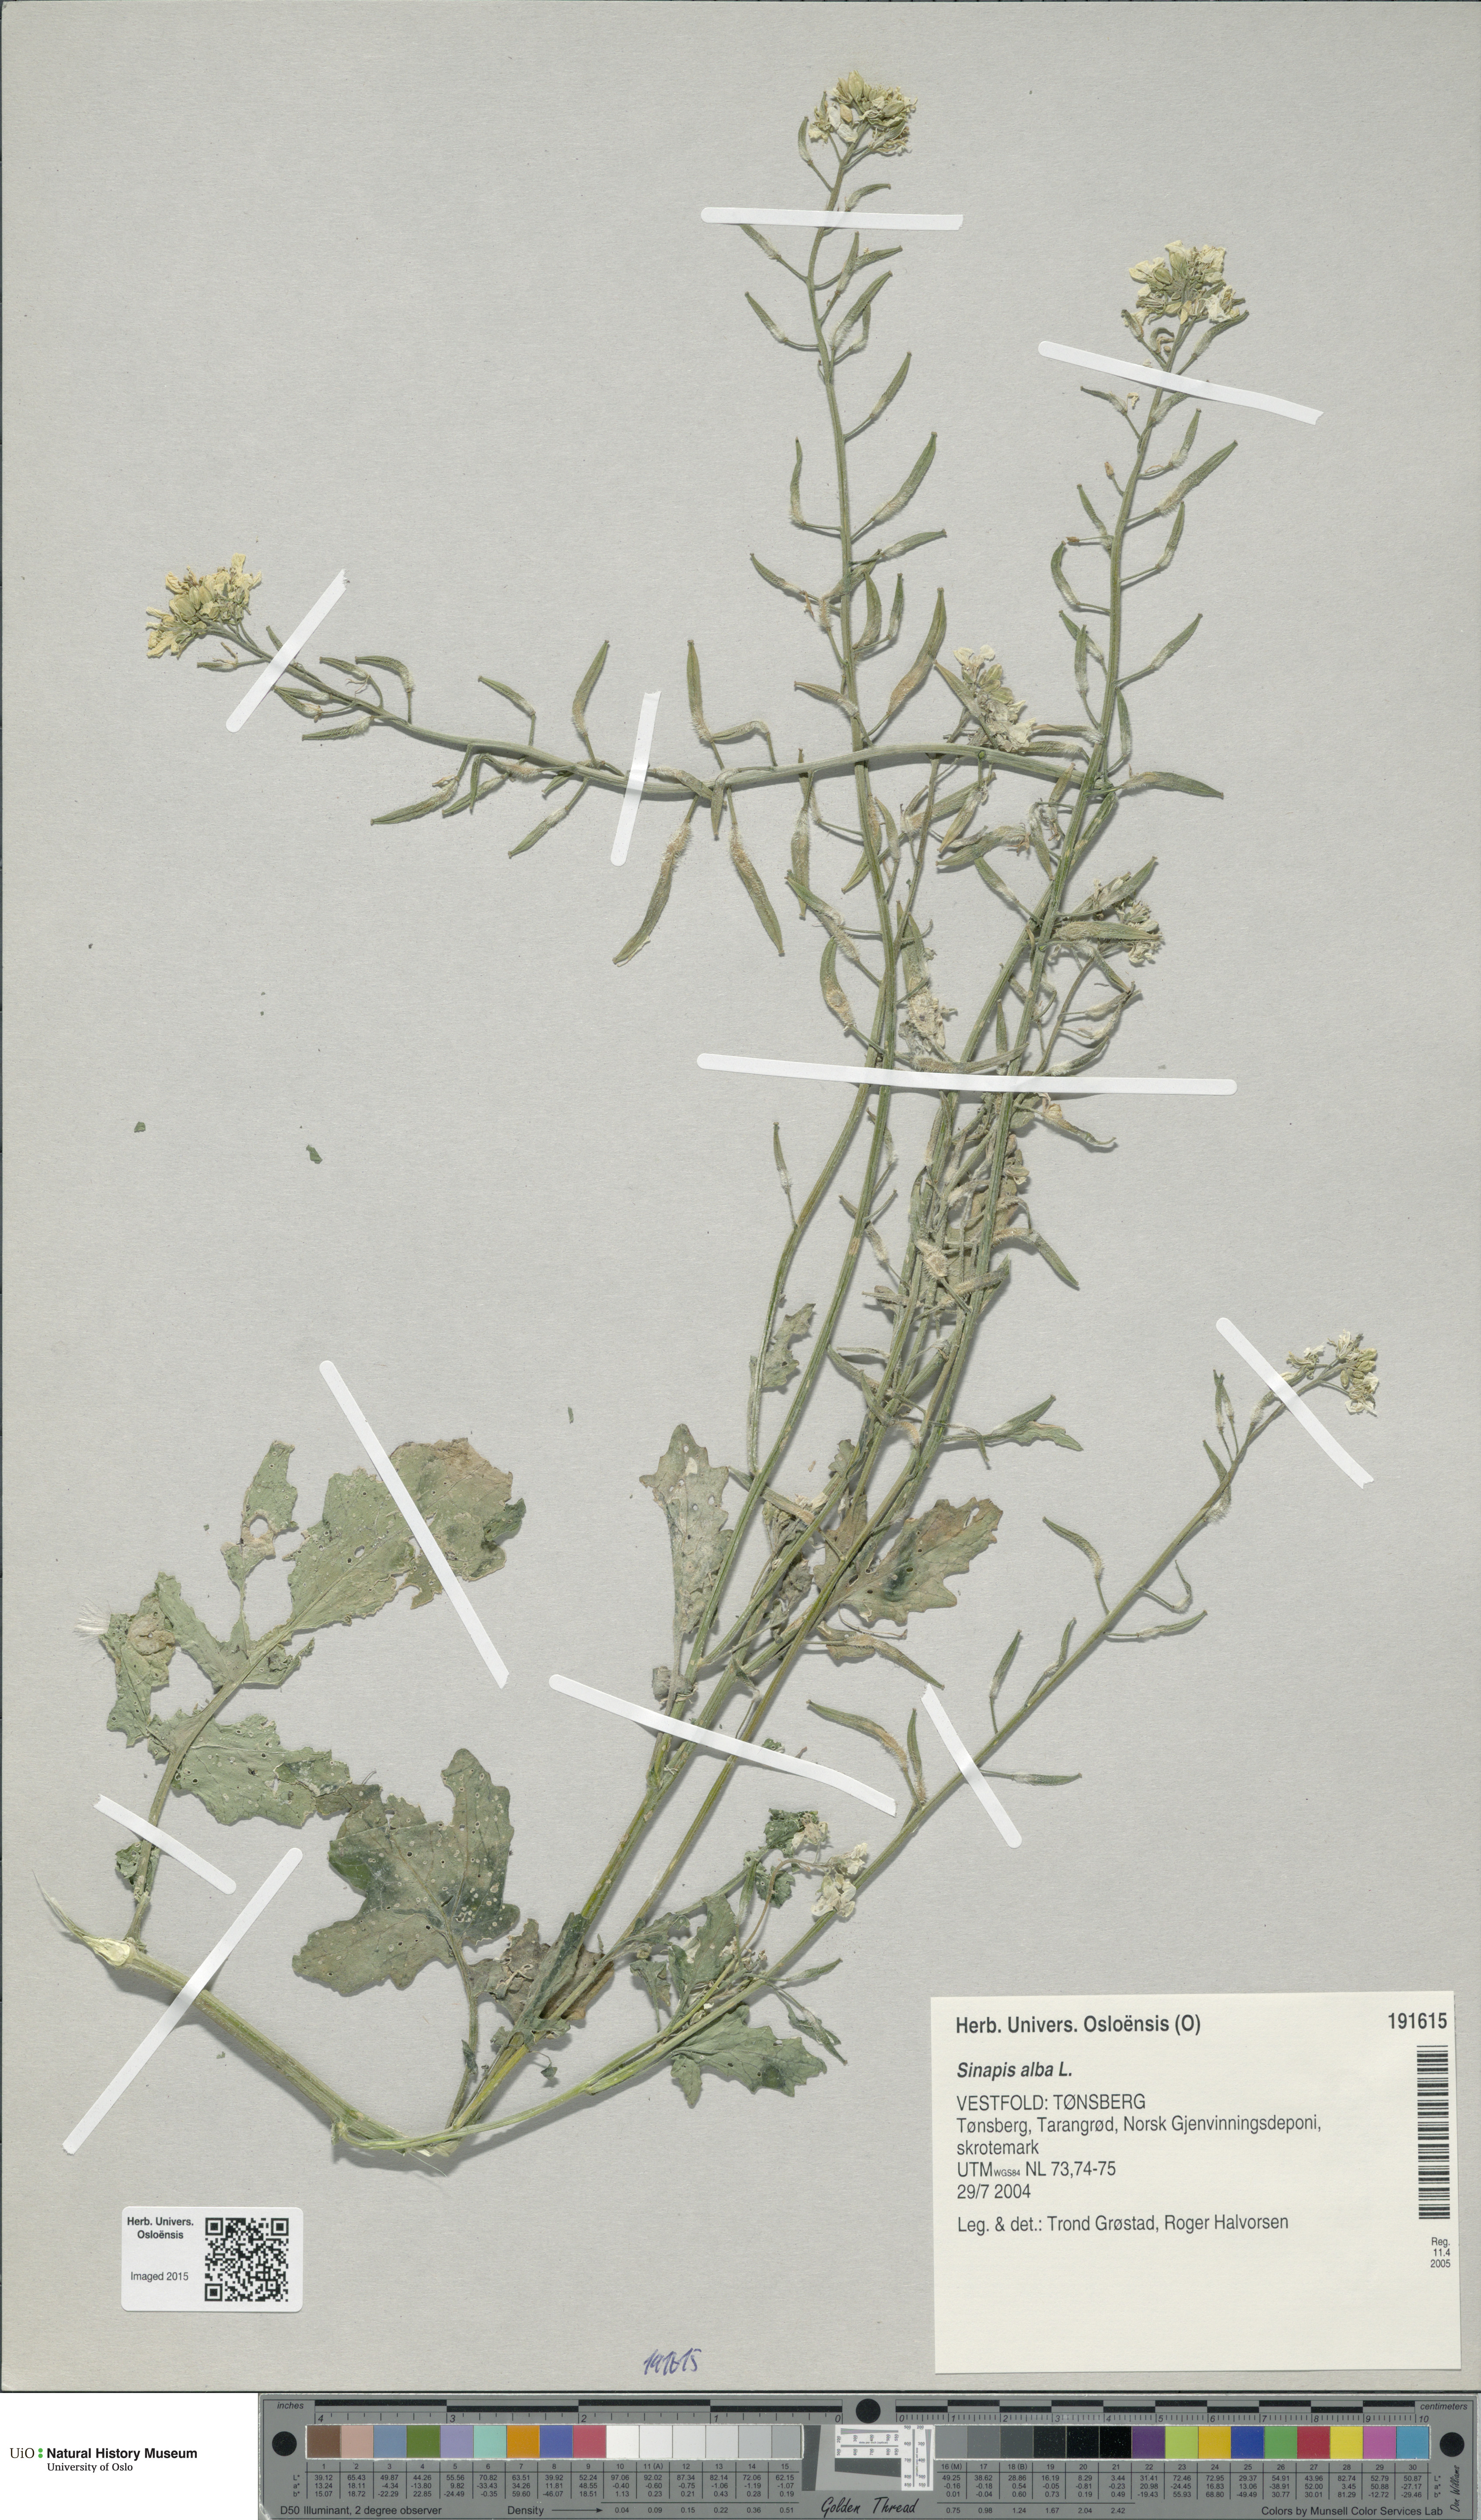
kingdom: Plantae
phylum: Tracheophyta
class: Magnoliopsida
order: Brassicales
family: Brassicaceae
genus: Sinapis
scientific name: Sinapis alba
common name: White mustard
